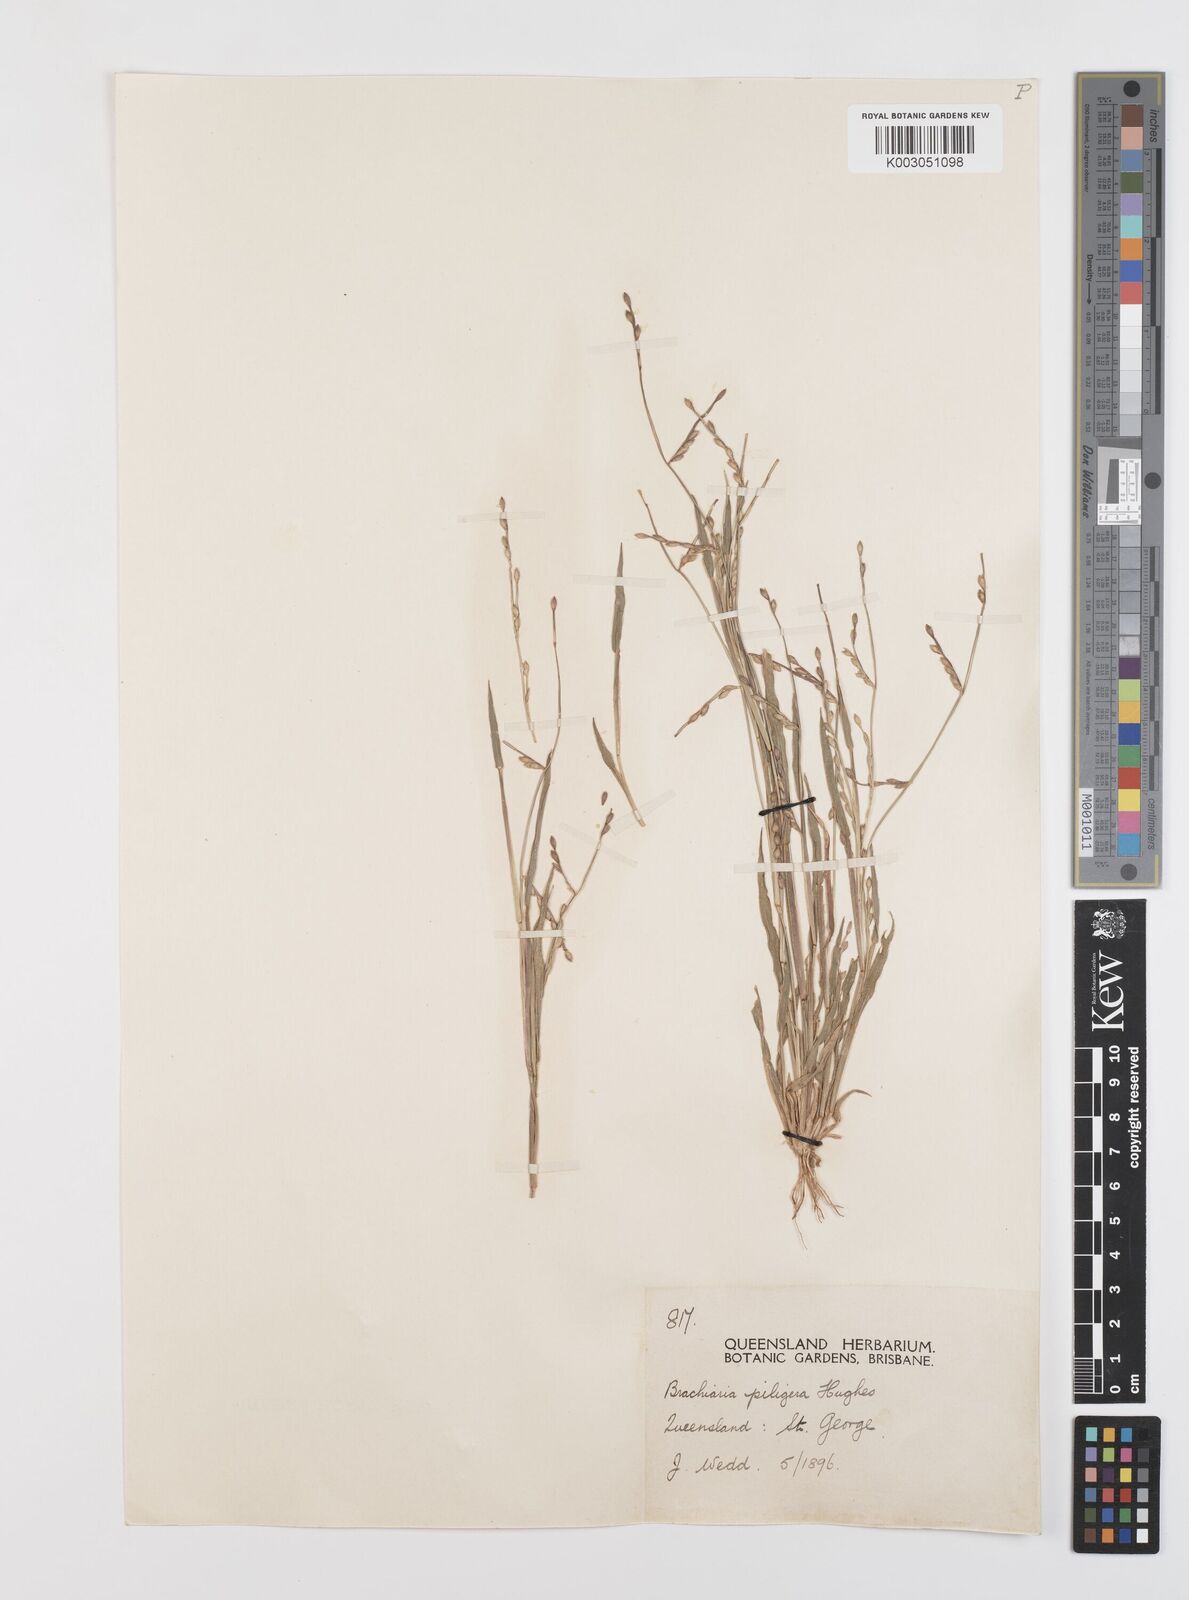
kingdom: Plantae
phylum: Tracheophyta
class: Liliopsida
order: Poales
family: Poaceae
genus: Urochloa
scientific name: Urochloa piligera
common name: Wattle signalgrass
